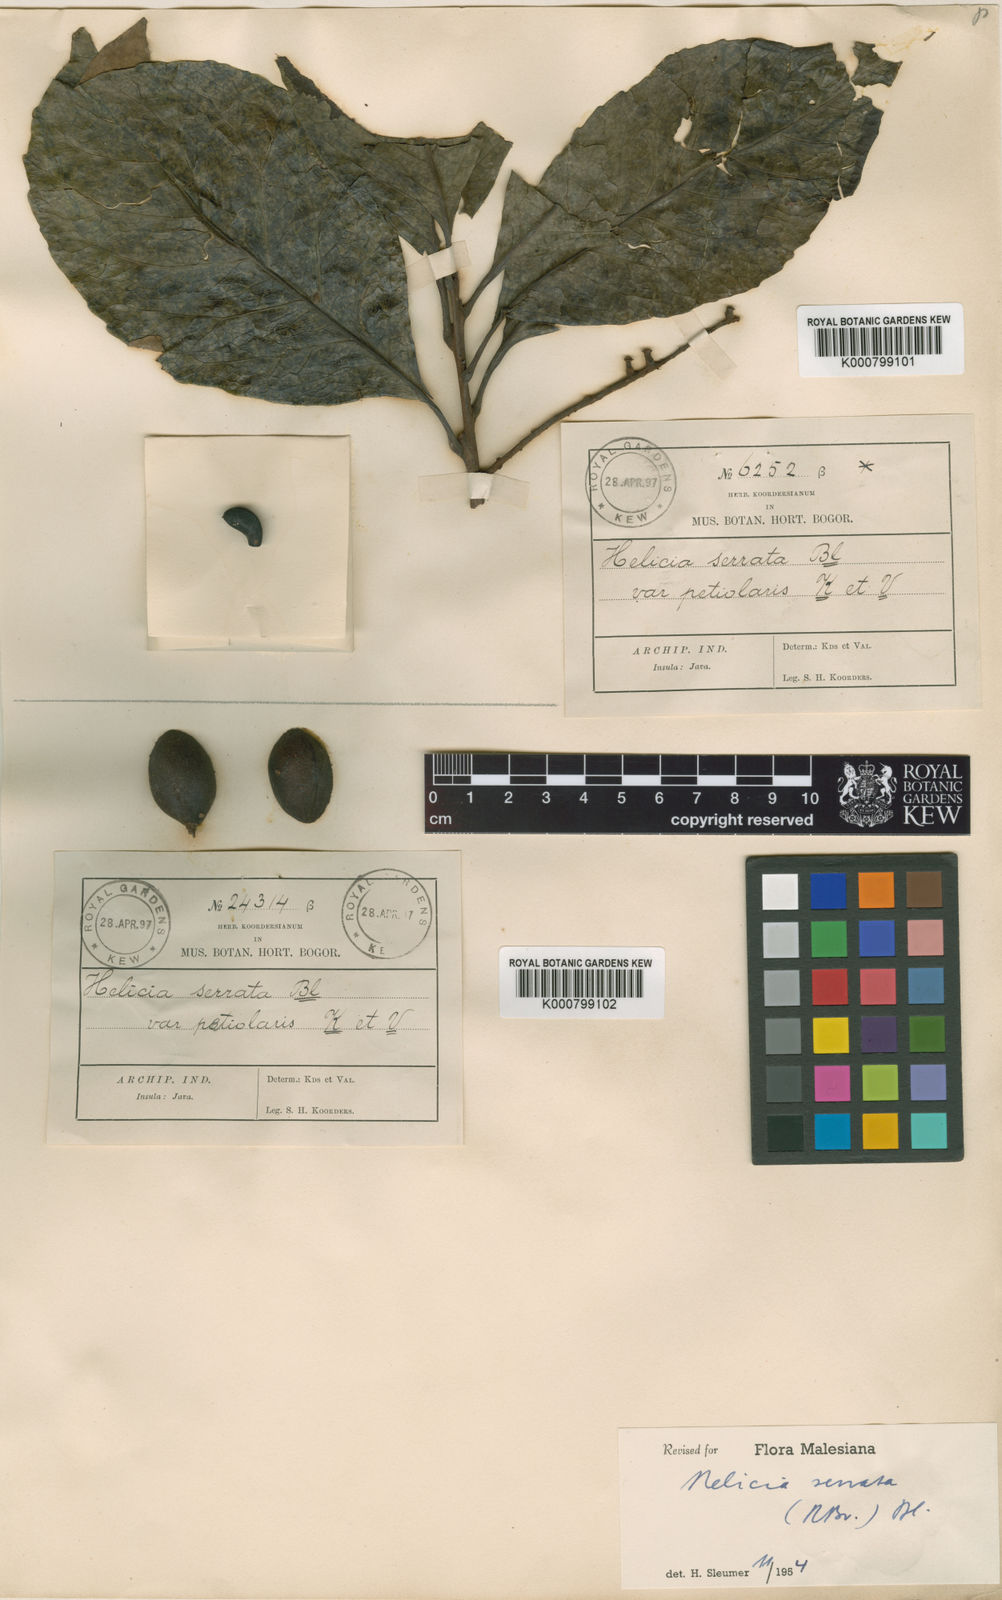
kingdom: Plantae
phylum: Tracheophyta
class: Magnoliopsida
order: Proteales
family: Proteaceae
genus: Helicia
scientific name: Helicia serrata
